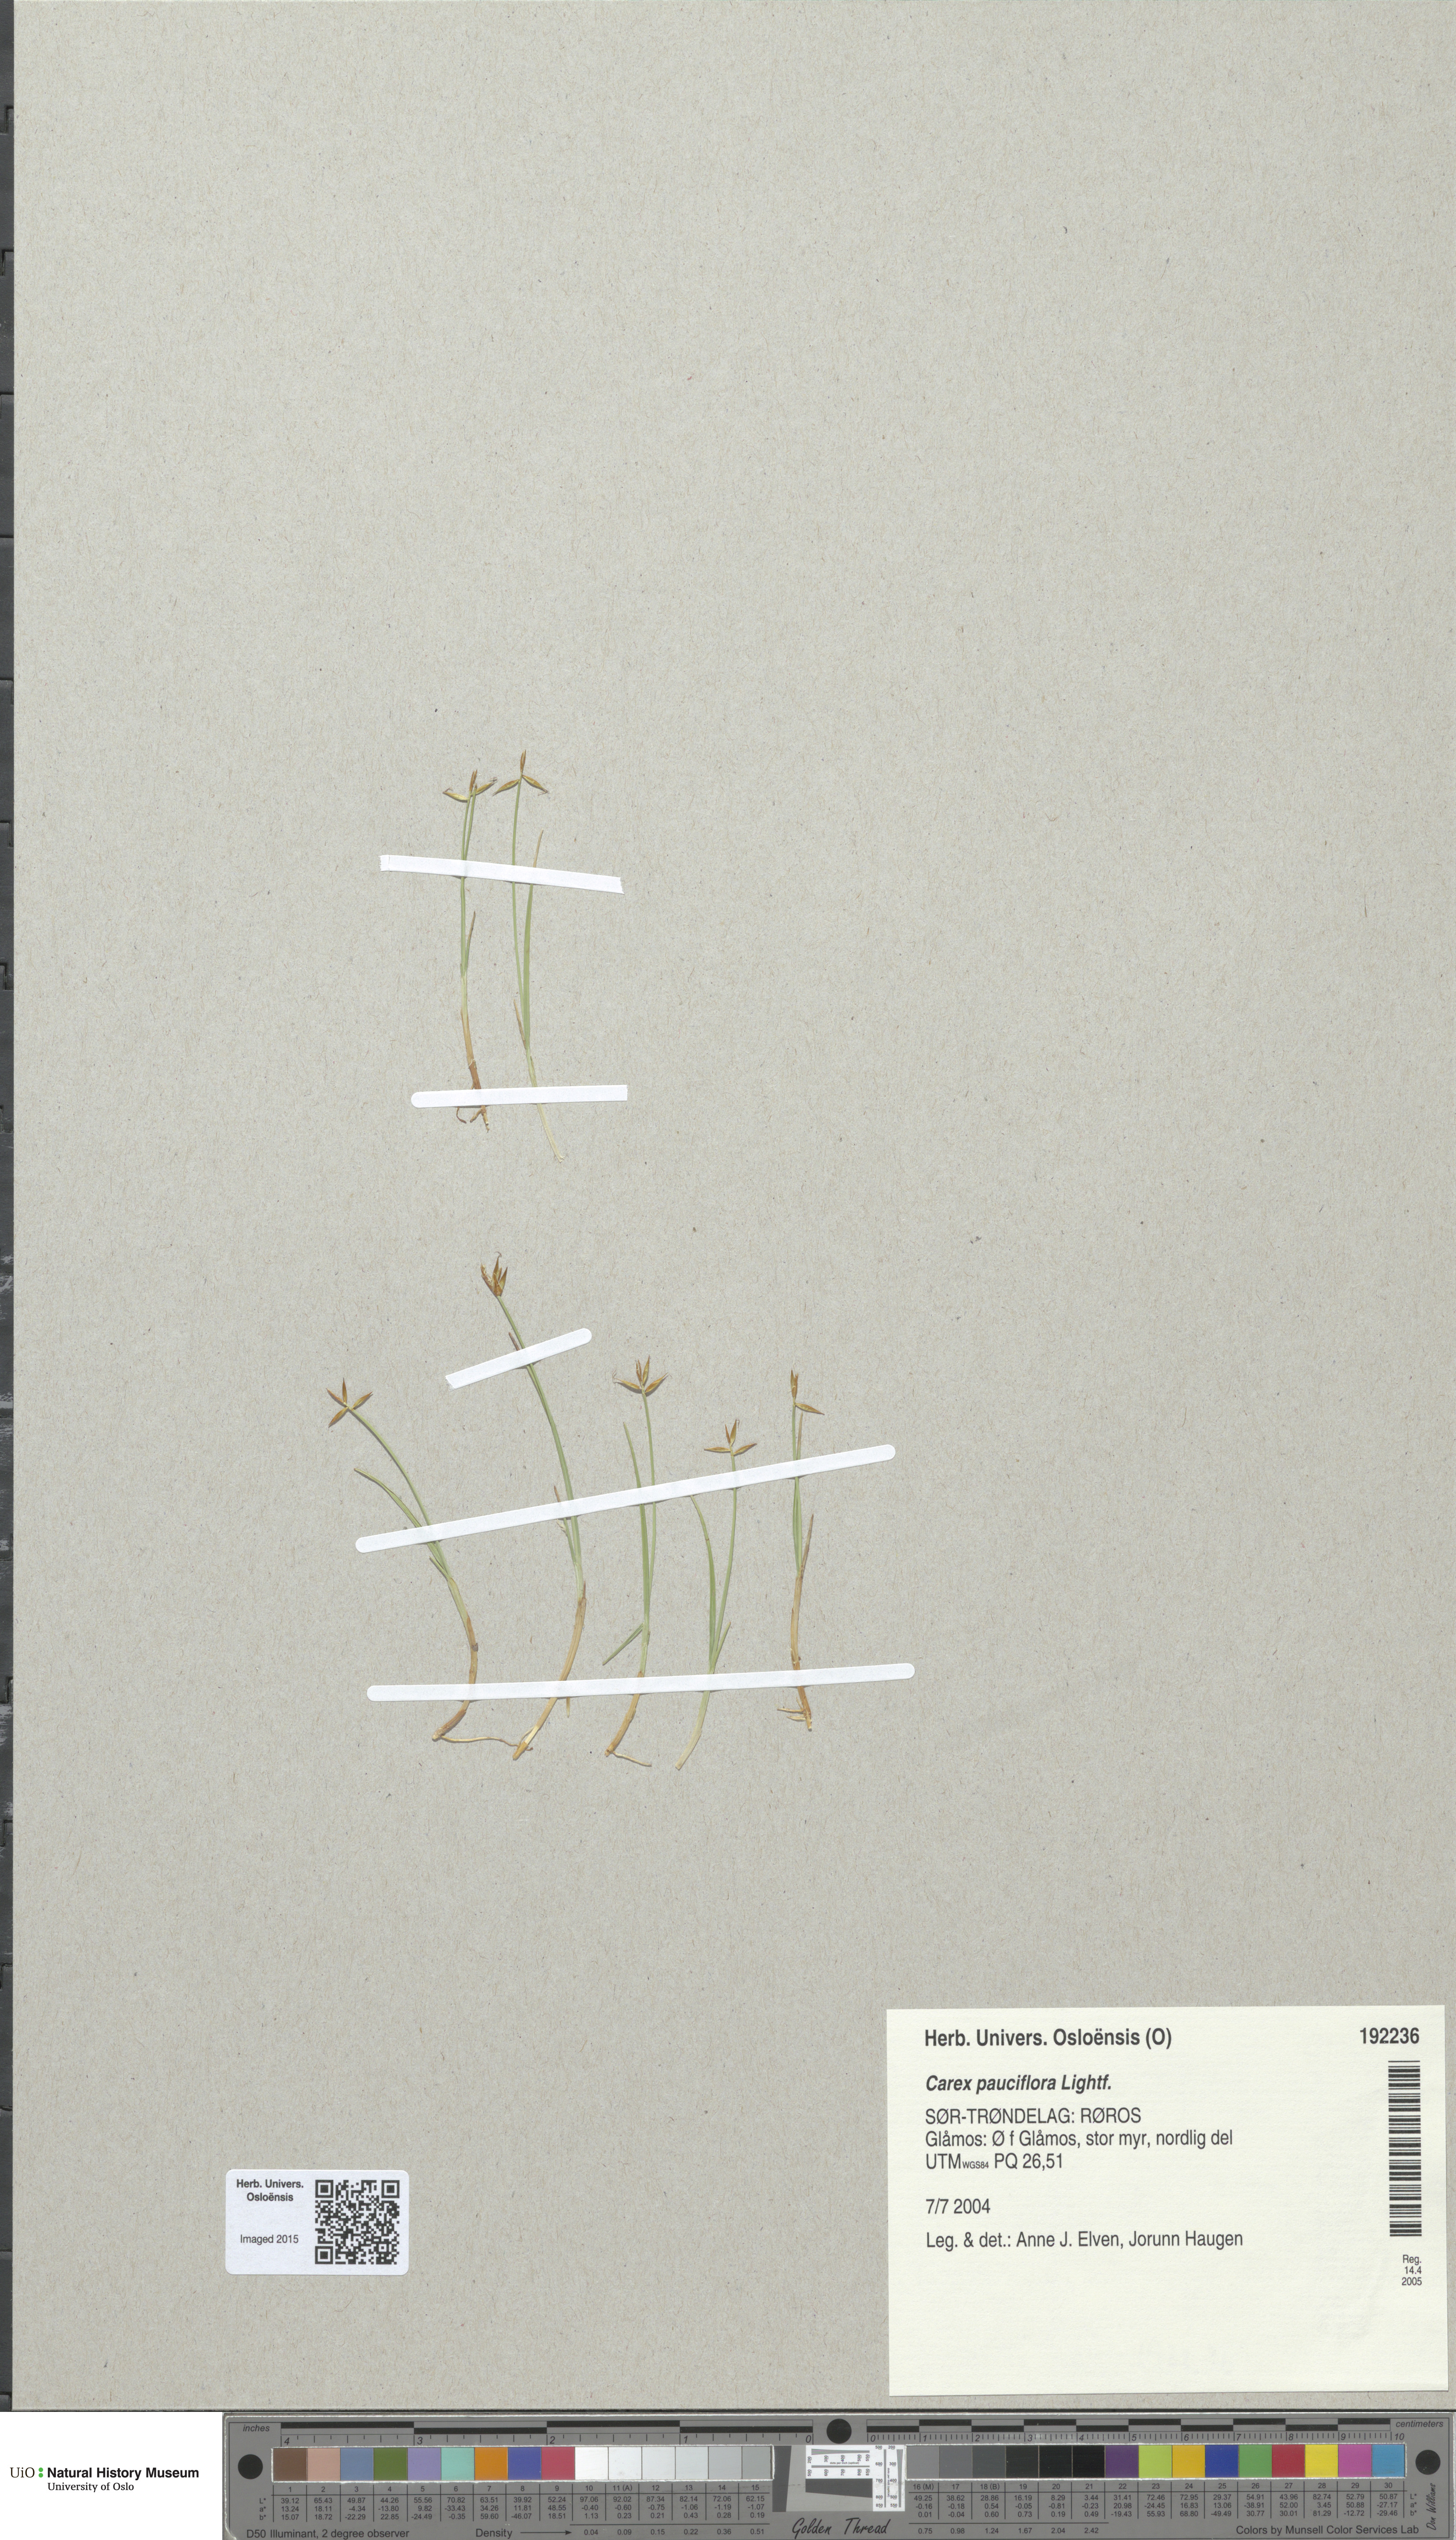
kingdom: Plantae
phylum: Tracheophyta
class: Liliopsida
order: Poales
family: Cyperaceae
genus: Carex
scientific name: Carex pauciflora
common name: Few-flowered sedge
